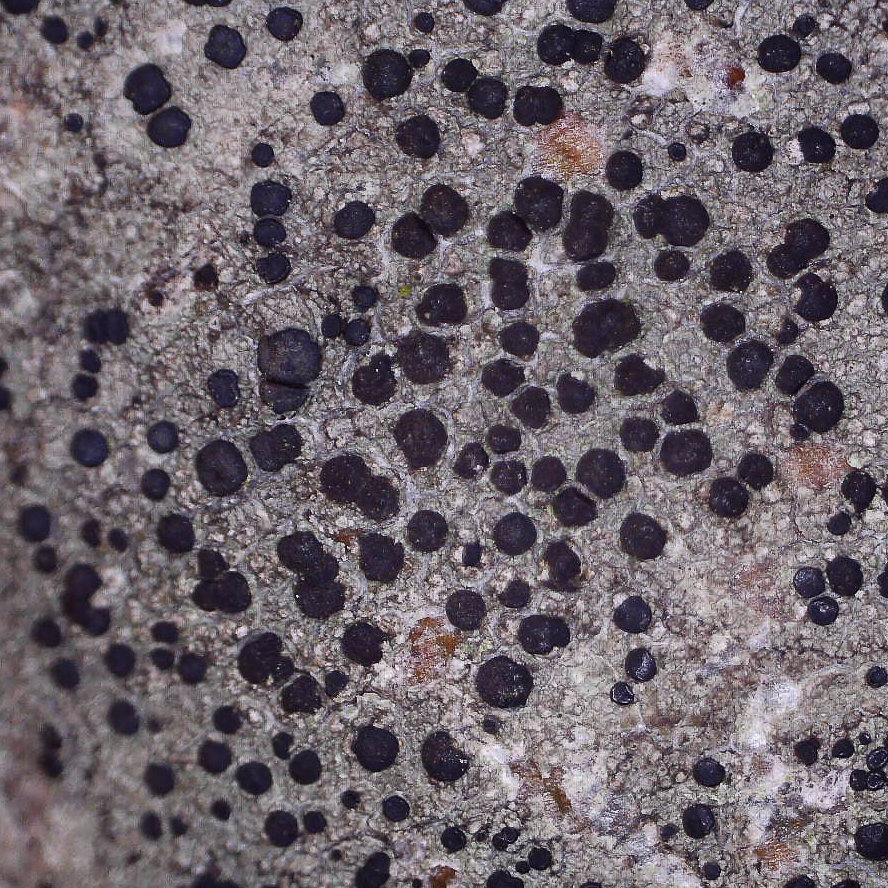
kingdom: Fungi
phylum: Ascomycota
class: Lecanoromycetes
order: Lecanorales
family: Lecanoraceae
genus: Lecidella
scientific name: Lecidella elaeochroma
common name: grågrøn skivelav
